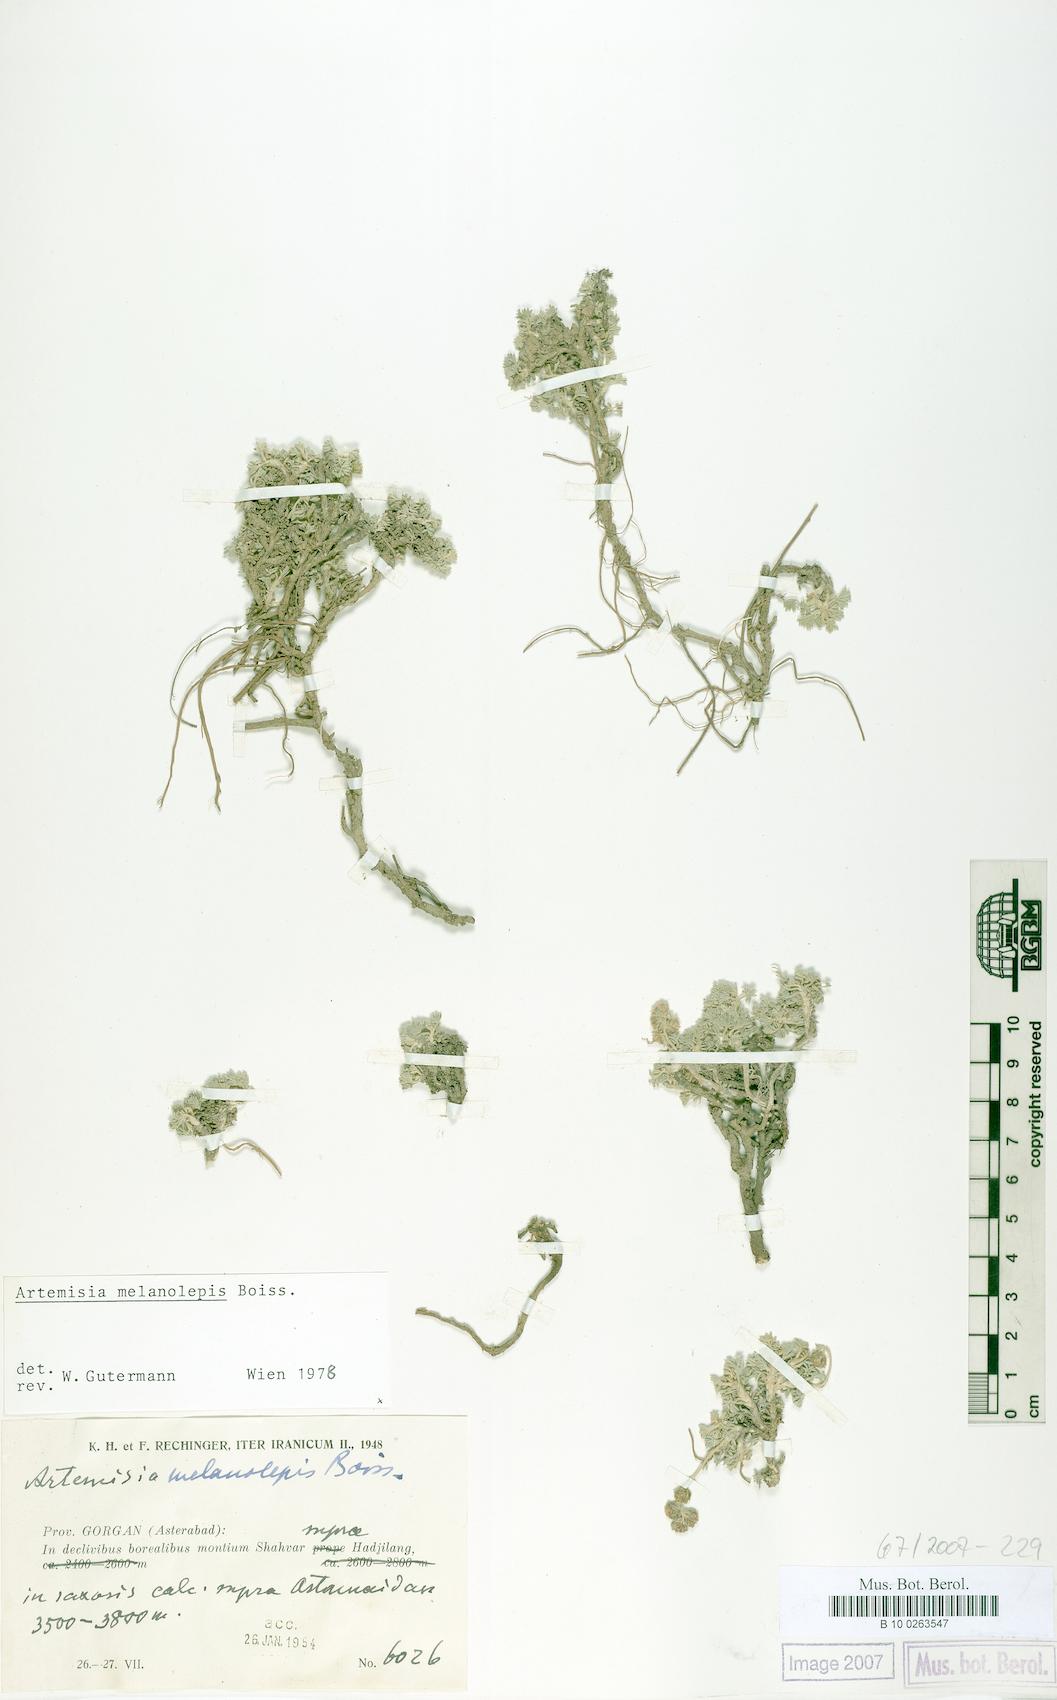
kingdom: Plantae
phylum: Tracheophyta
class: Magnoliopsida
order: Asterales
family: Asteraceae
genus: Artemisia
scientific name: Artemisia melanolepis
